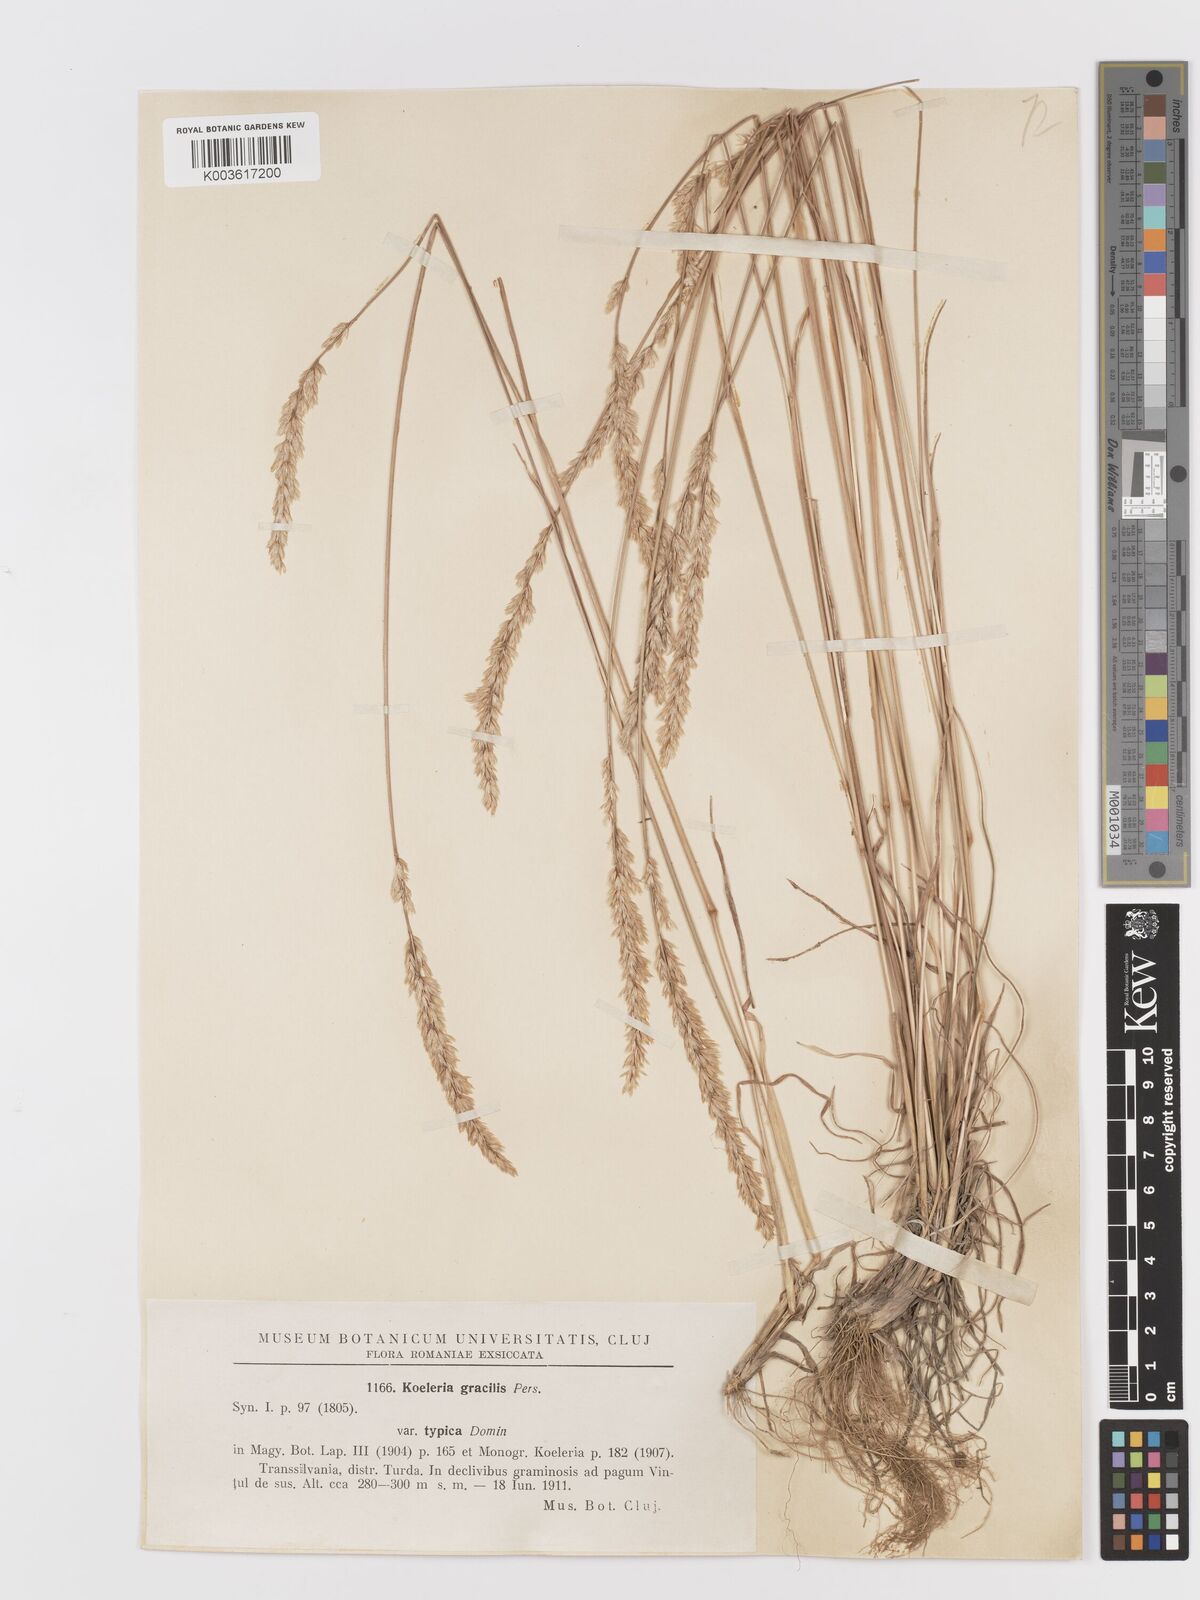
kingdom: Plantae
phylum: Tracheophyta
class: Liliopsida
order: Poales
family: Poaceae
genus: Koeleria
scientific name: Koeleria macrantha
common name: Crested hair-grass
